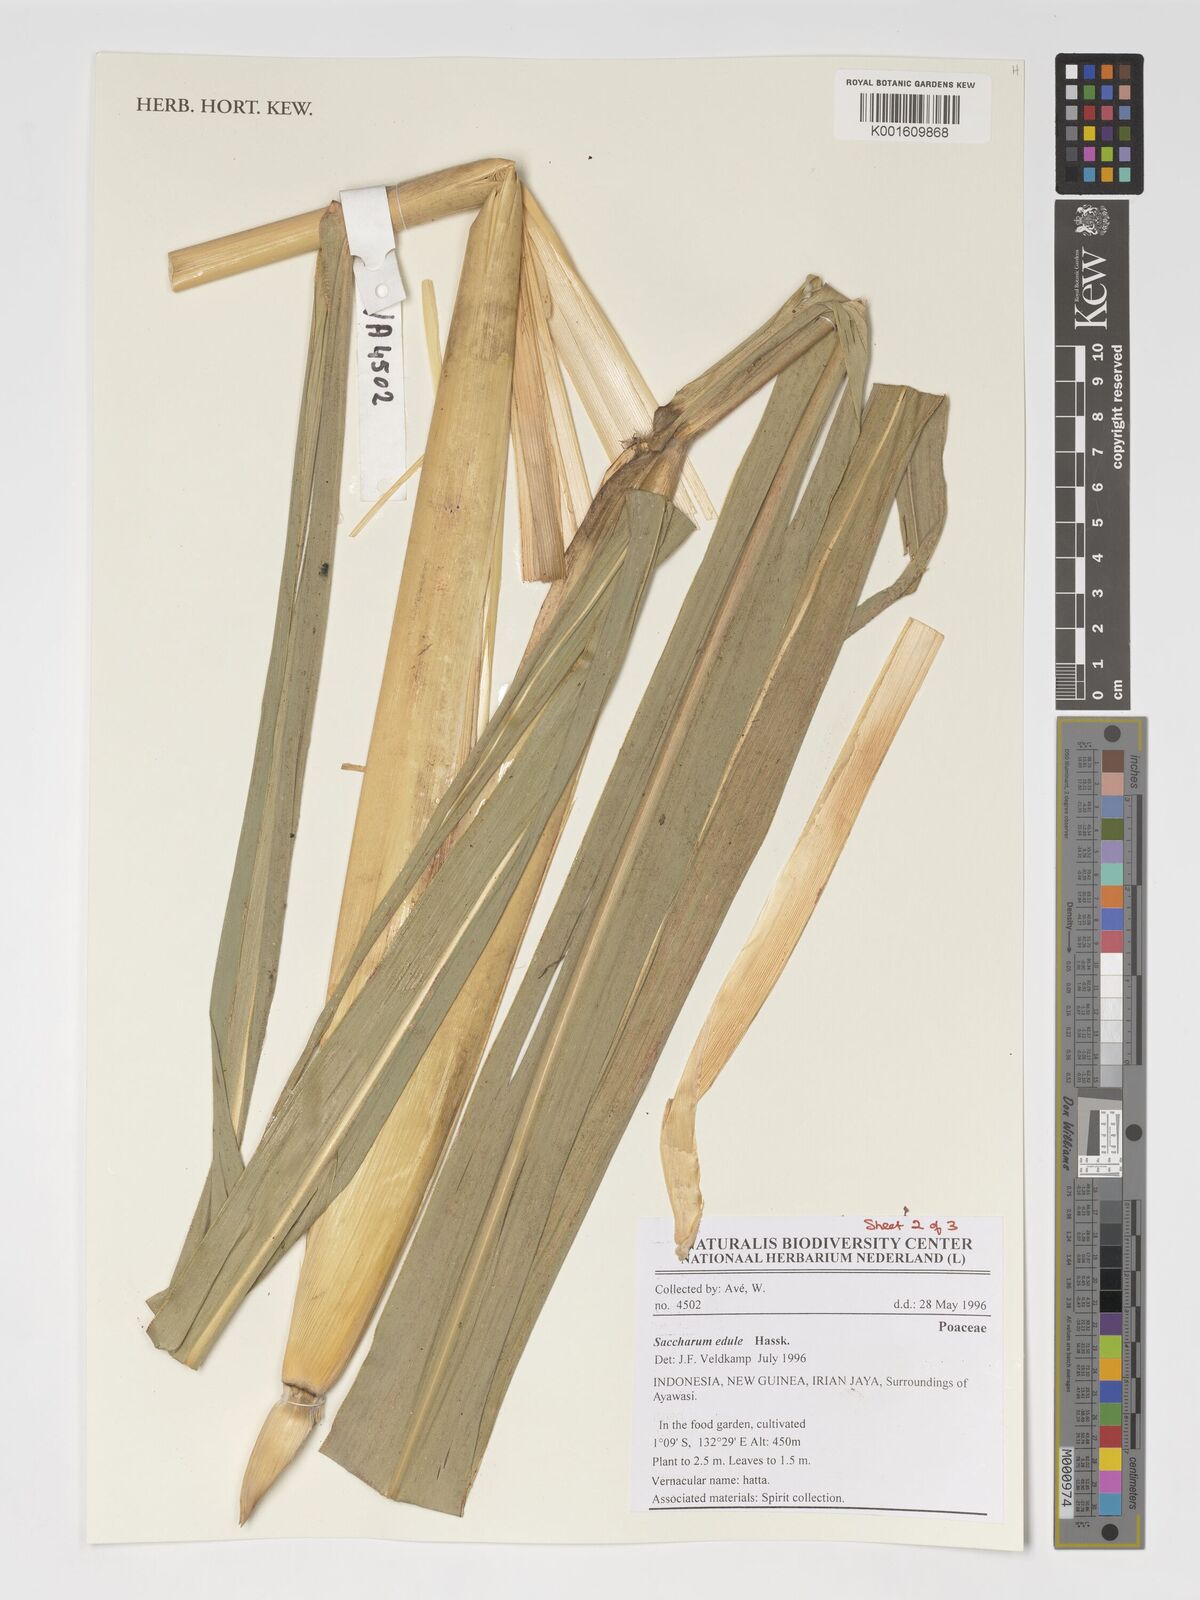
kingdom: Plantae
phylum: Tracheophyta
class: Liliopsida
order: Poales
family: Poaceae
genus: Saccharum
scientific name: Saccharum edule
